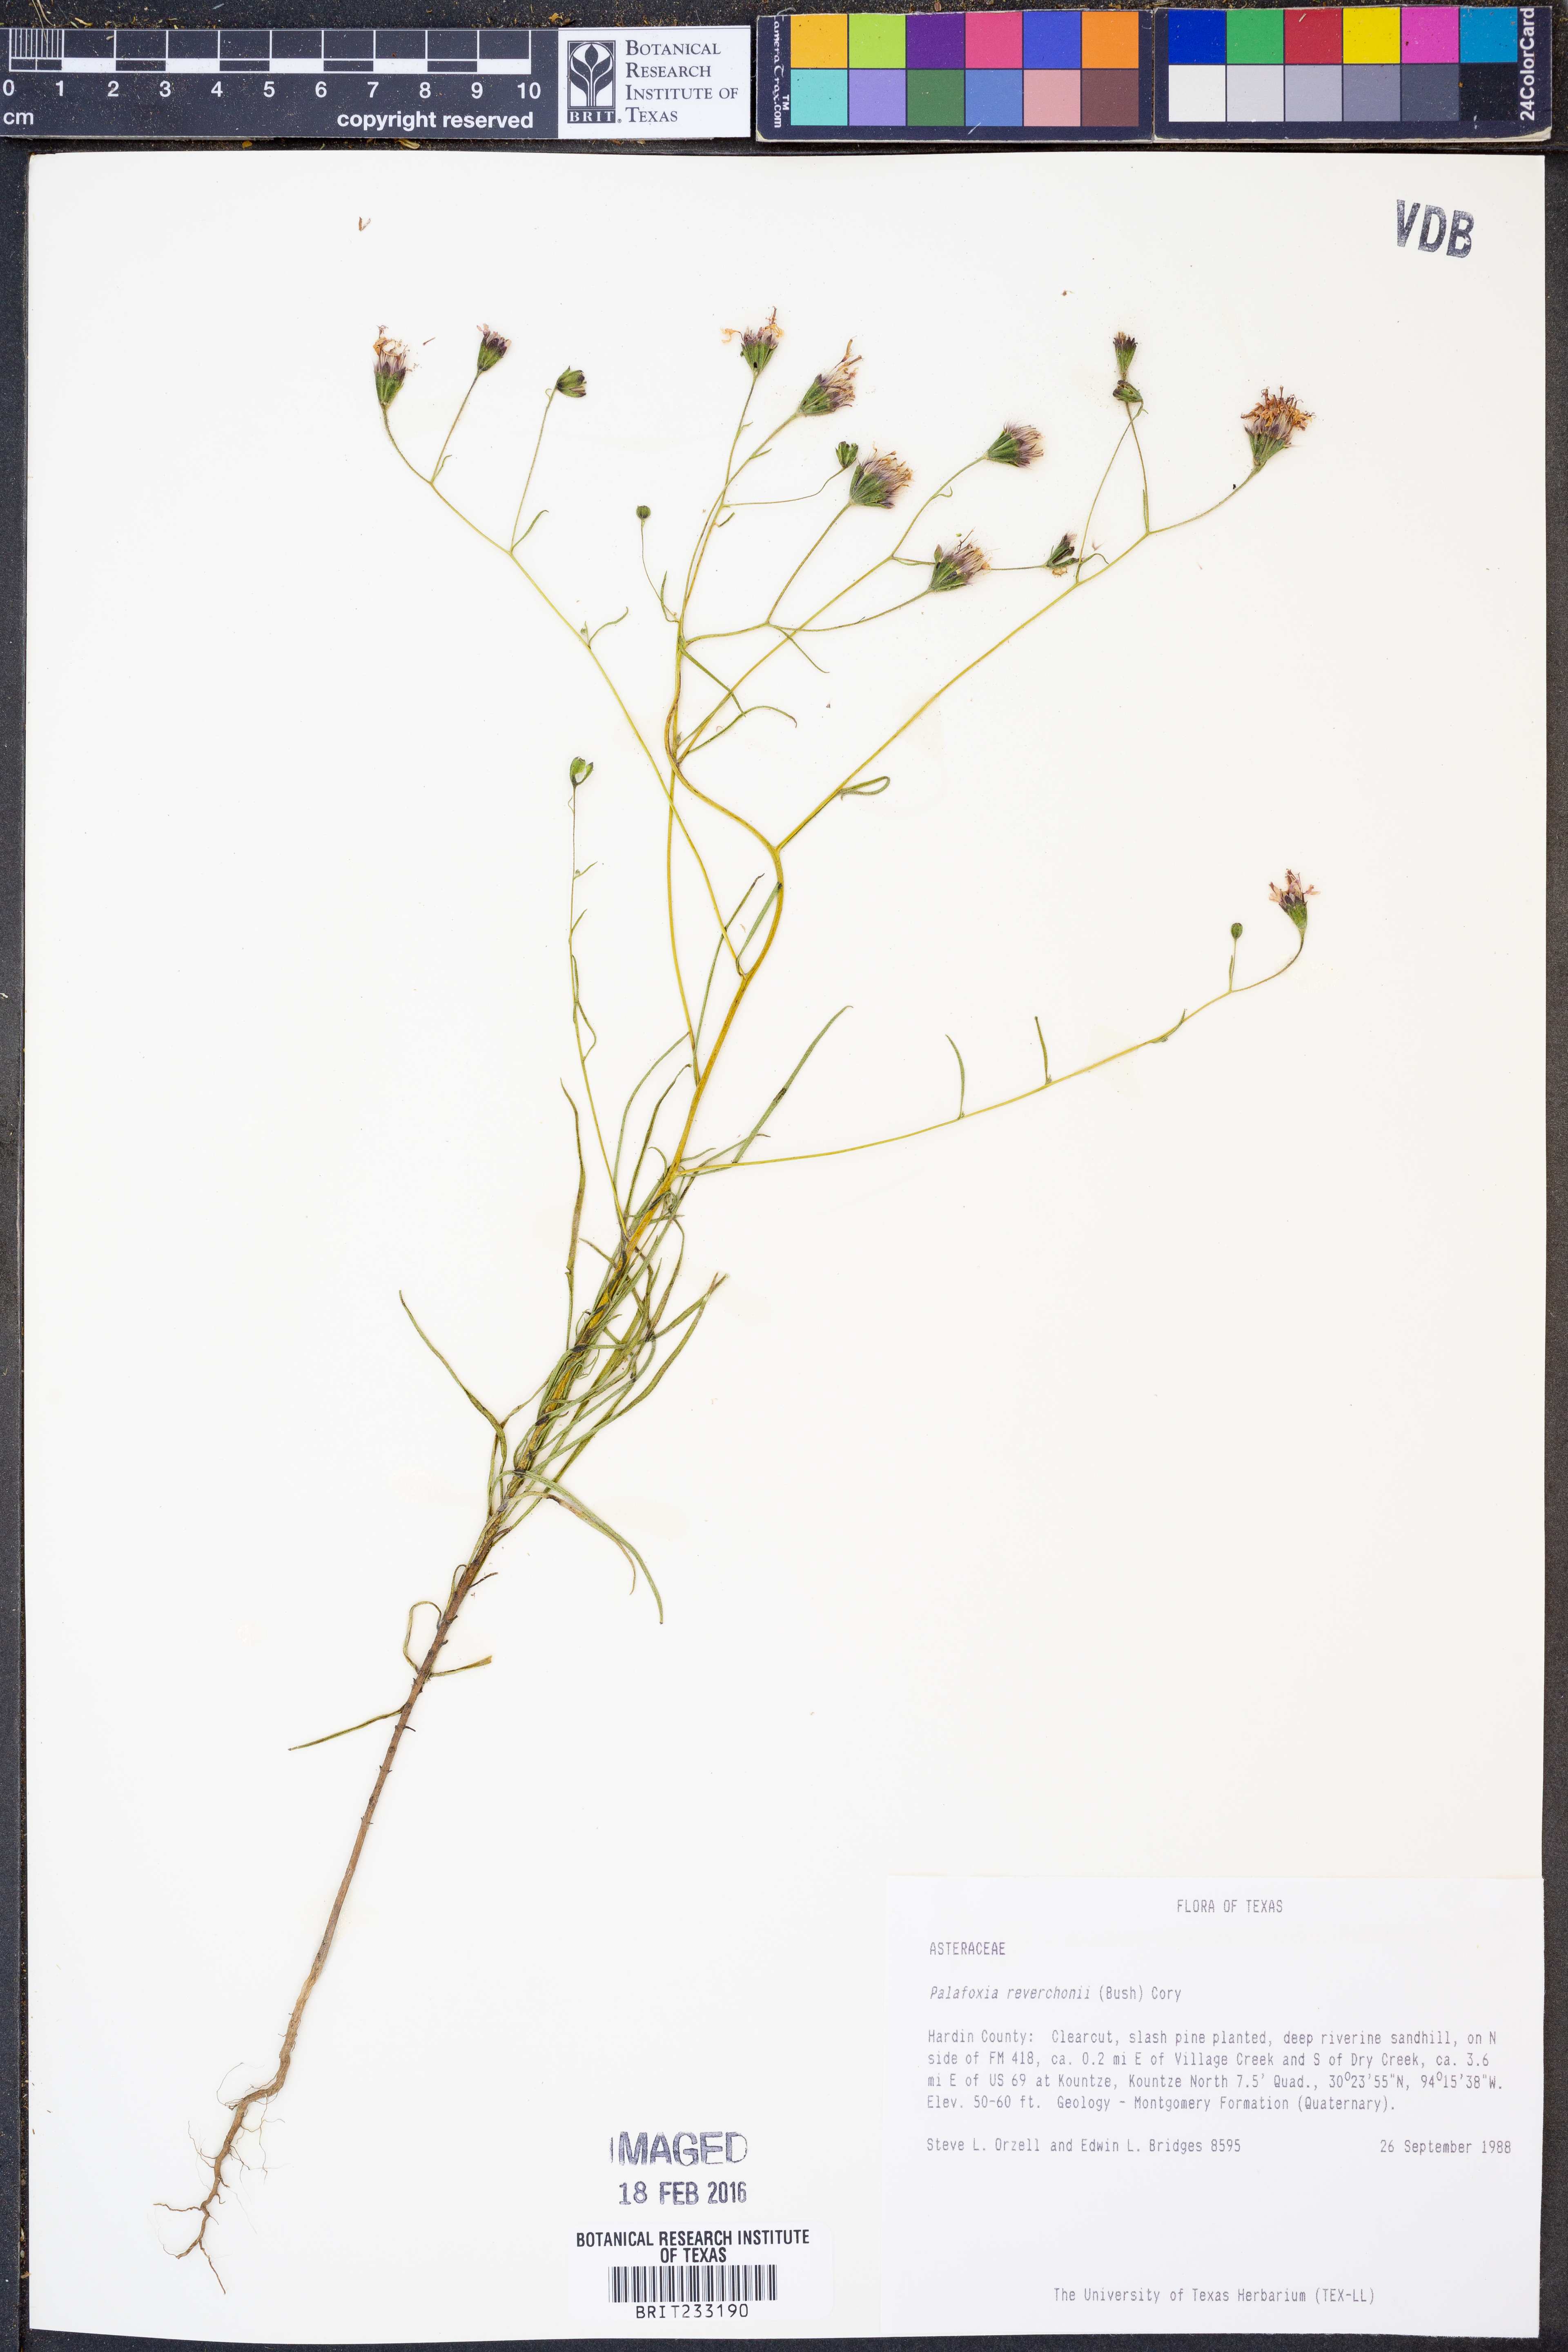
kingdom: Plantae
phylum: Tracheophyta
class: Magnoliopsida
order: Asterales
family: Asteraceae
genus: Palafoxia
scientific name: Palafoxia reverchonii
